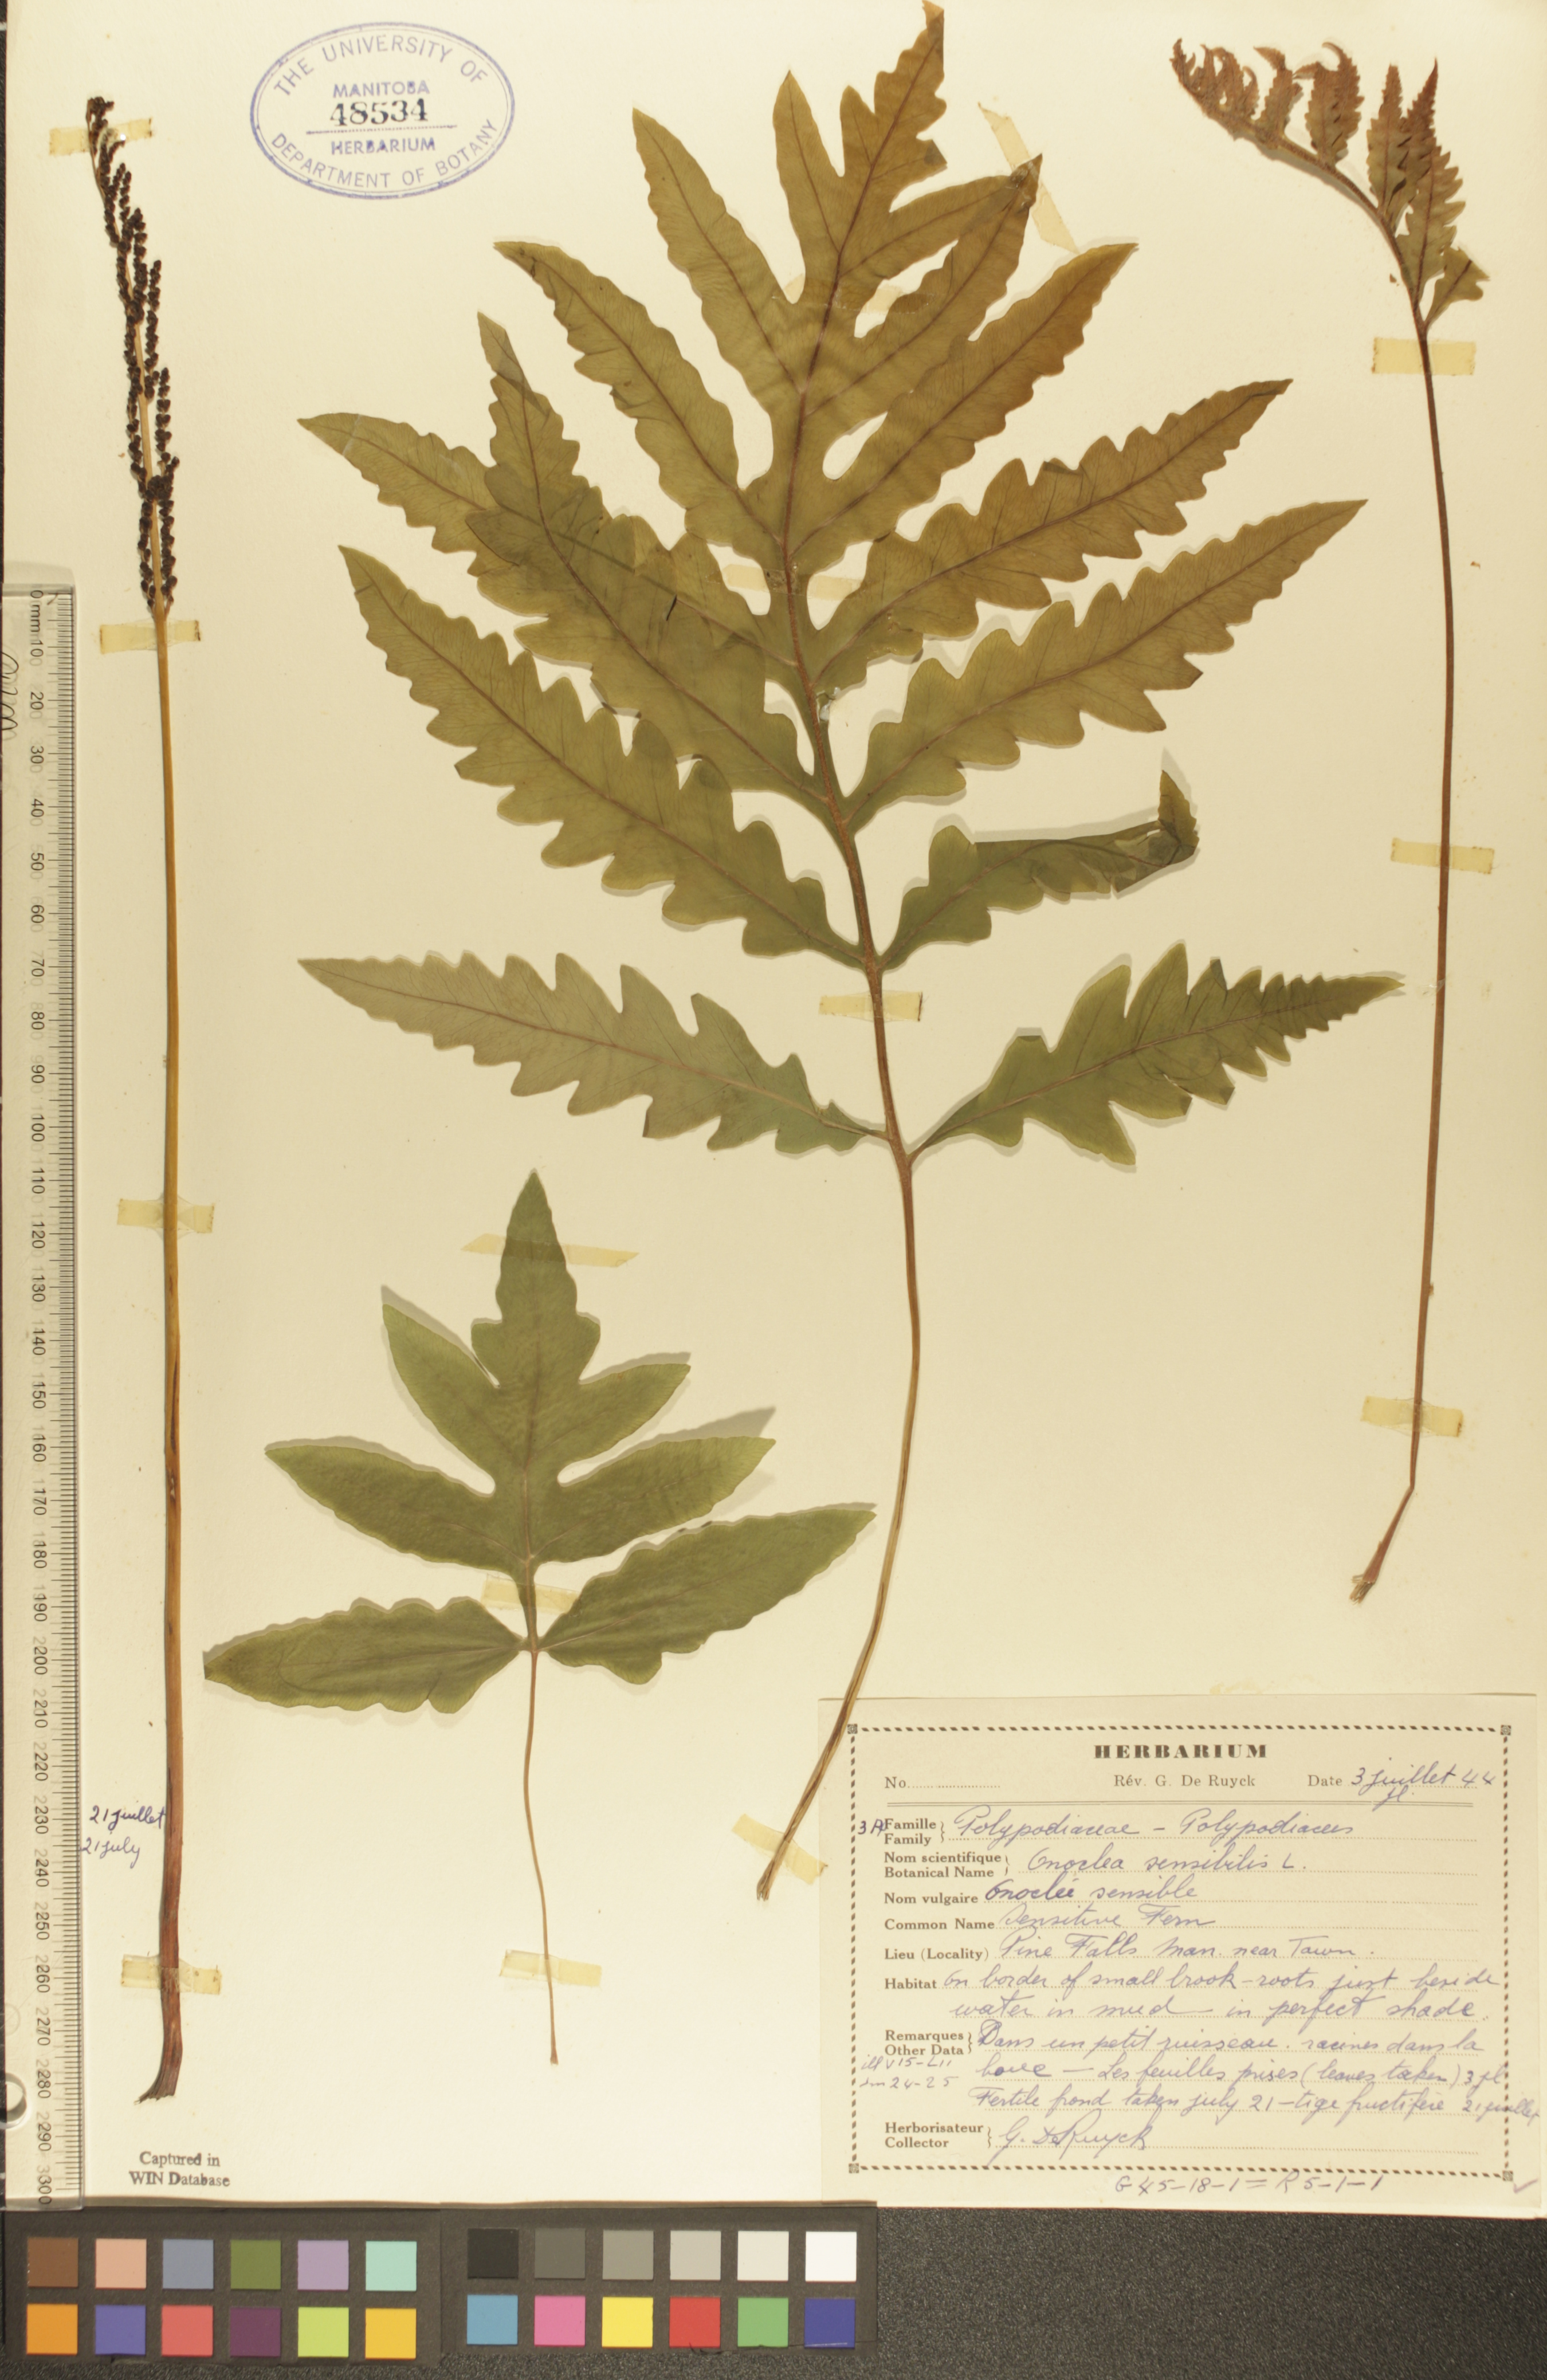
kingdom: Plantae
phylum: Tracheophyta
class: Polypodiopsida
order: Polypodiales
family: Onocleaceae
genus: Onoclea
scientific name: Onoclea sensibilis
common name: Sensitive fern
